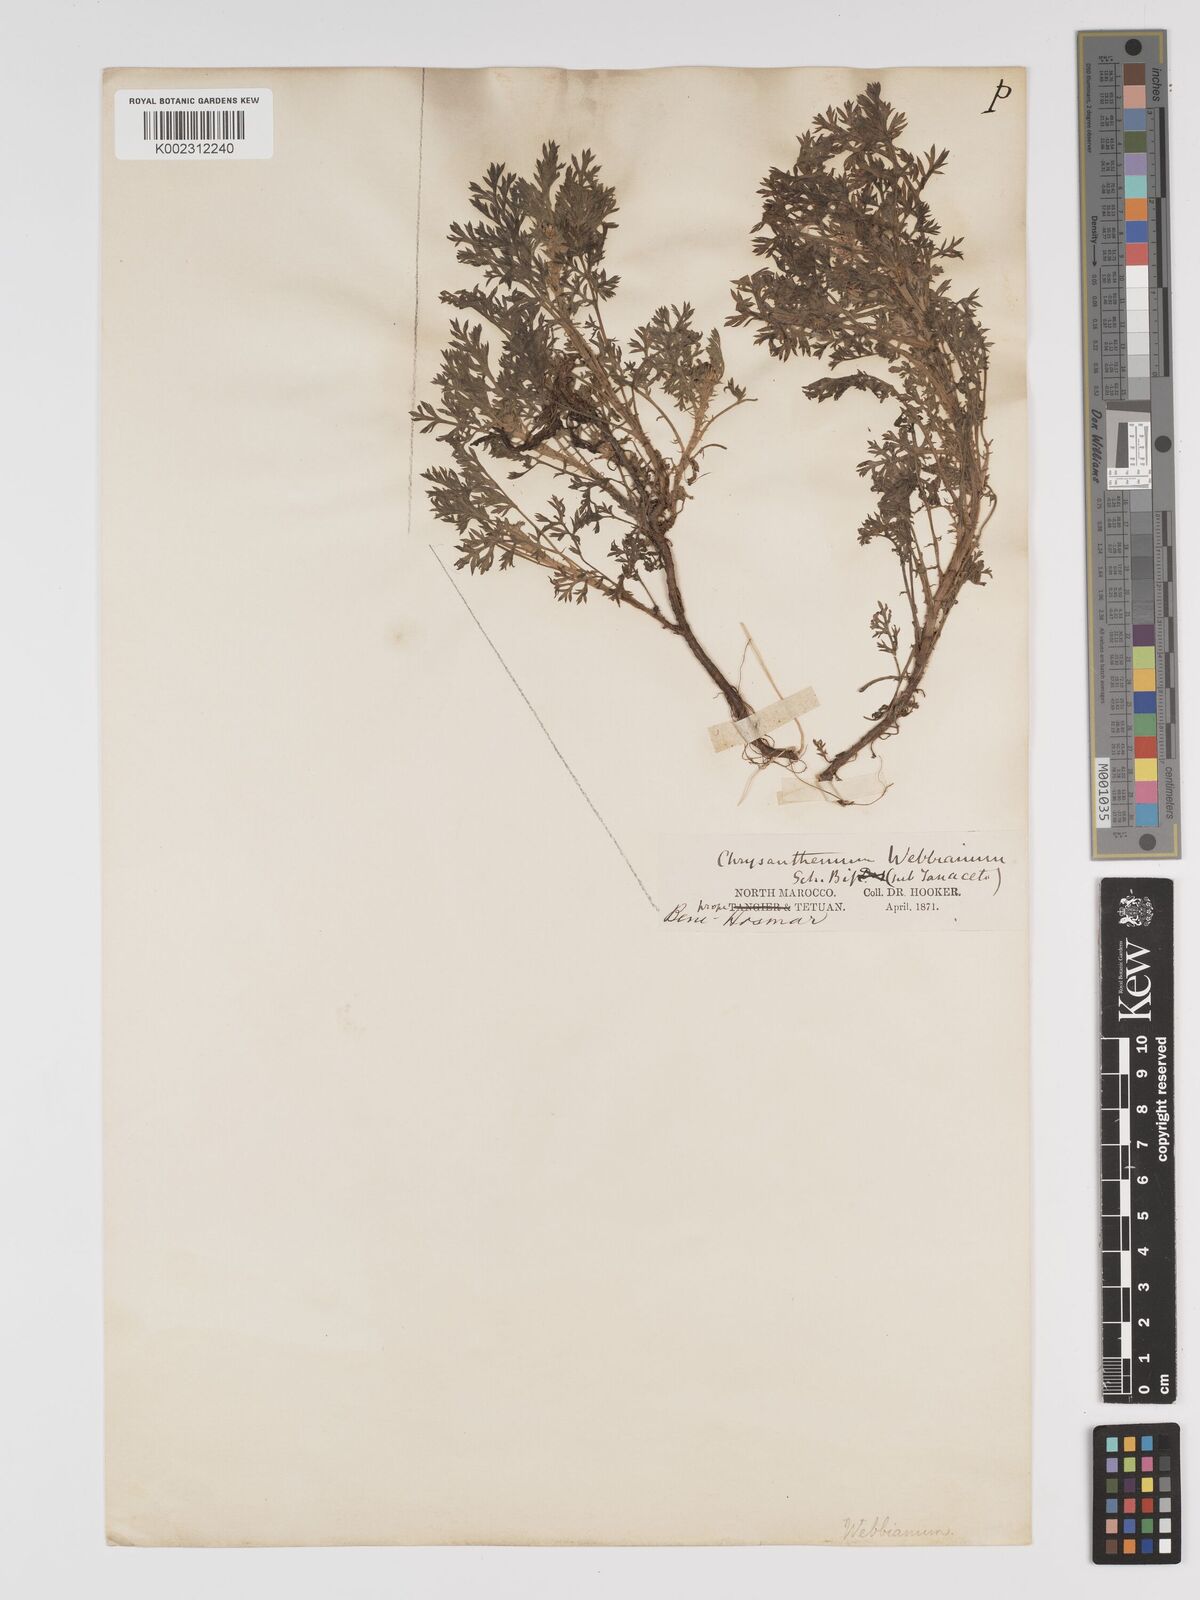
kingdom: Plantae
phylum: Tracheophyta
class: Magnoliopsida
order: Asterales
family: Asteraceae
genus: Tanacetum
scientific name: Tanacetum
